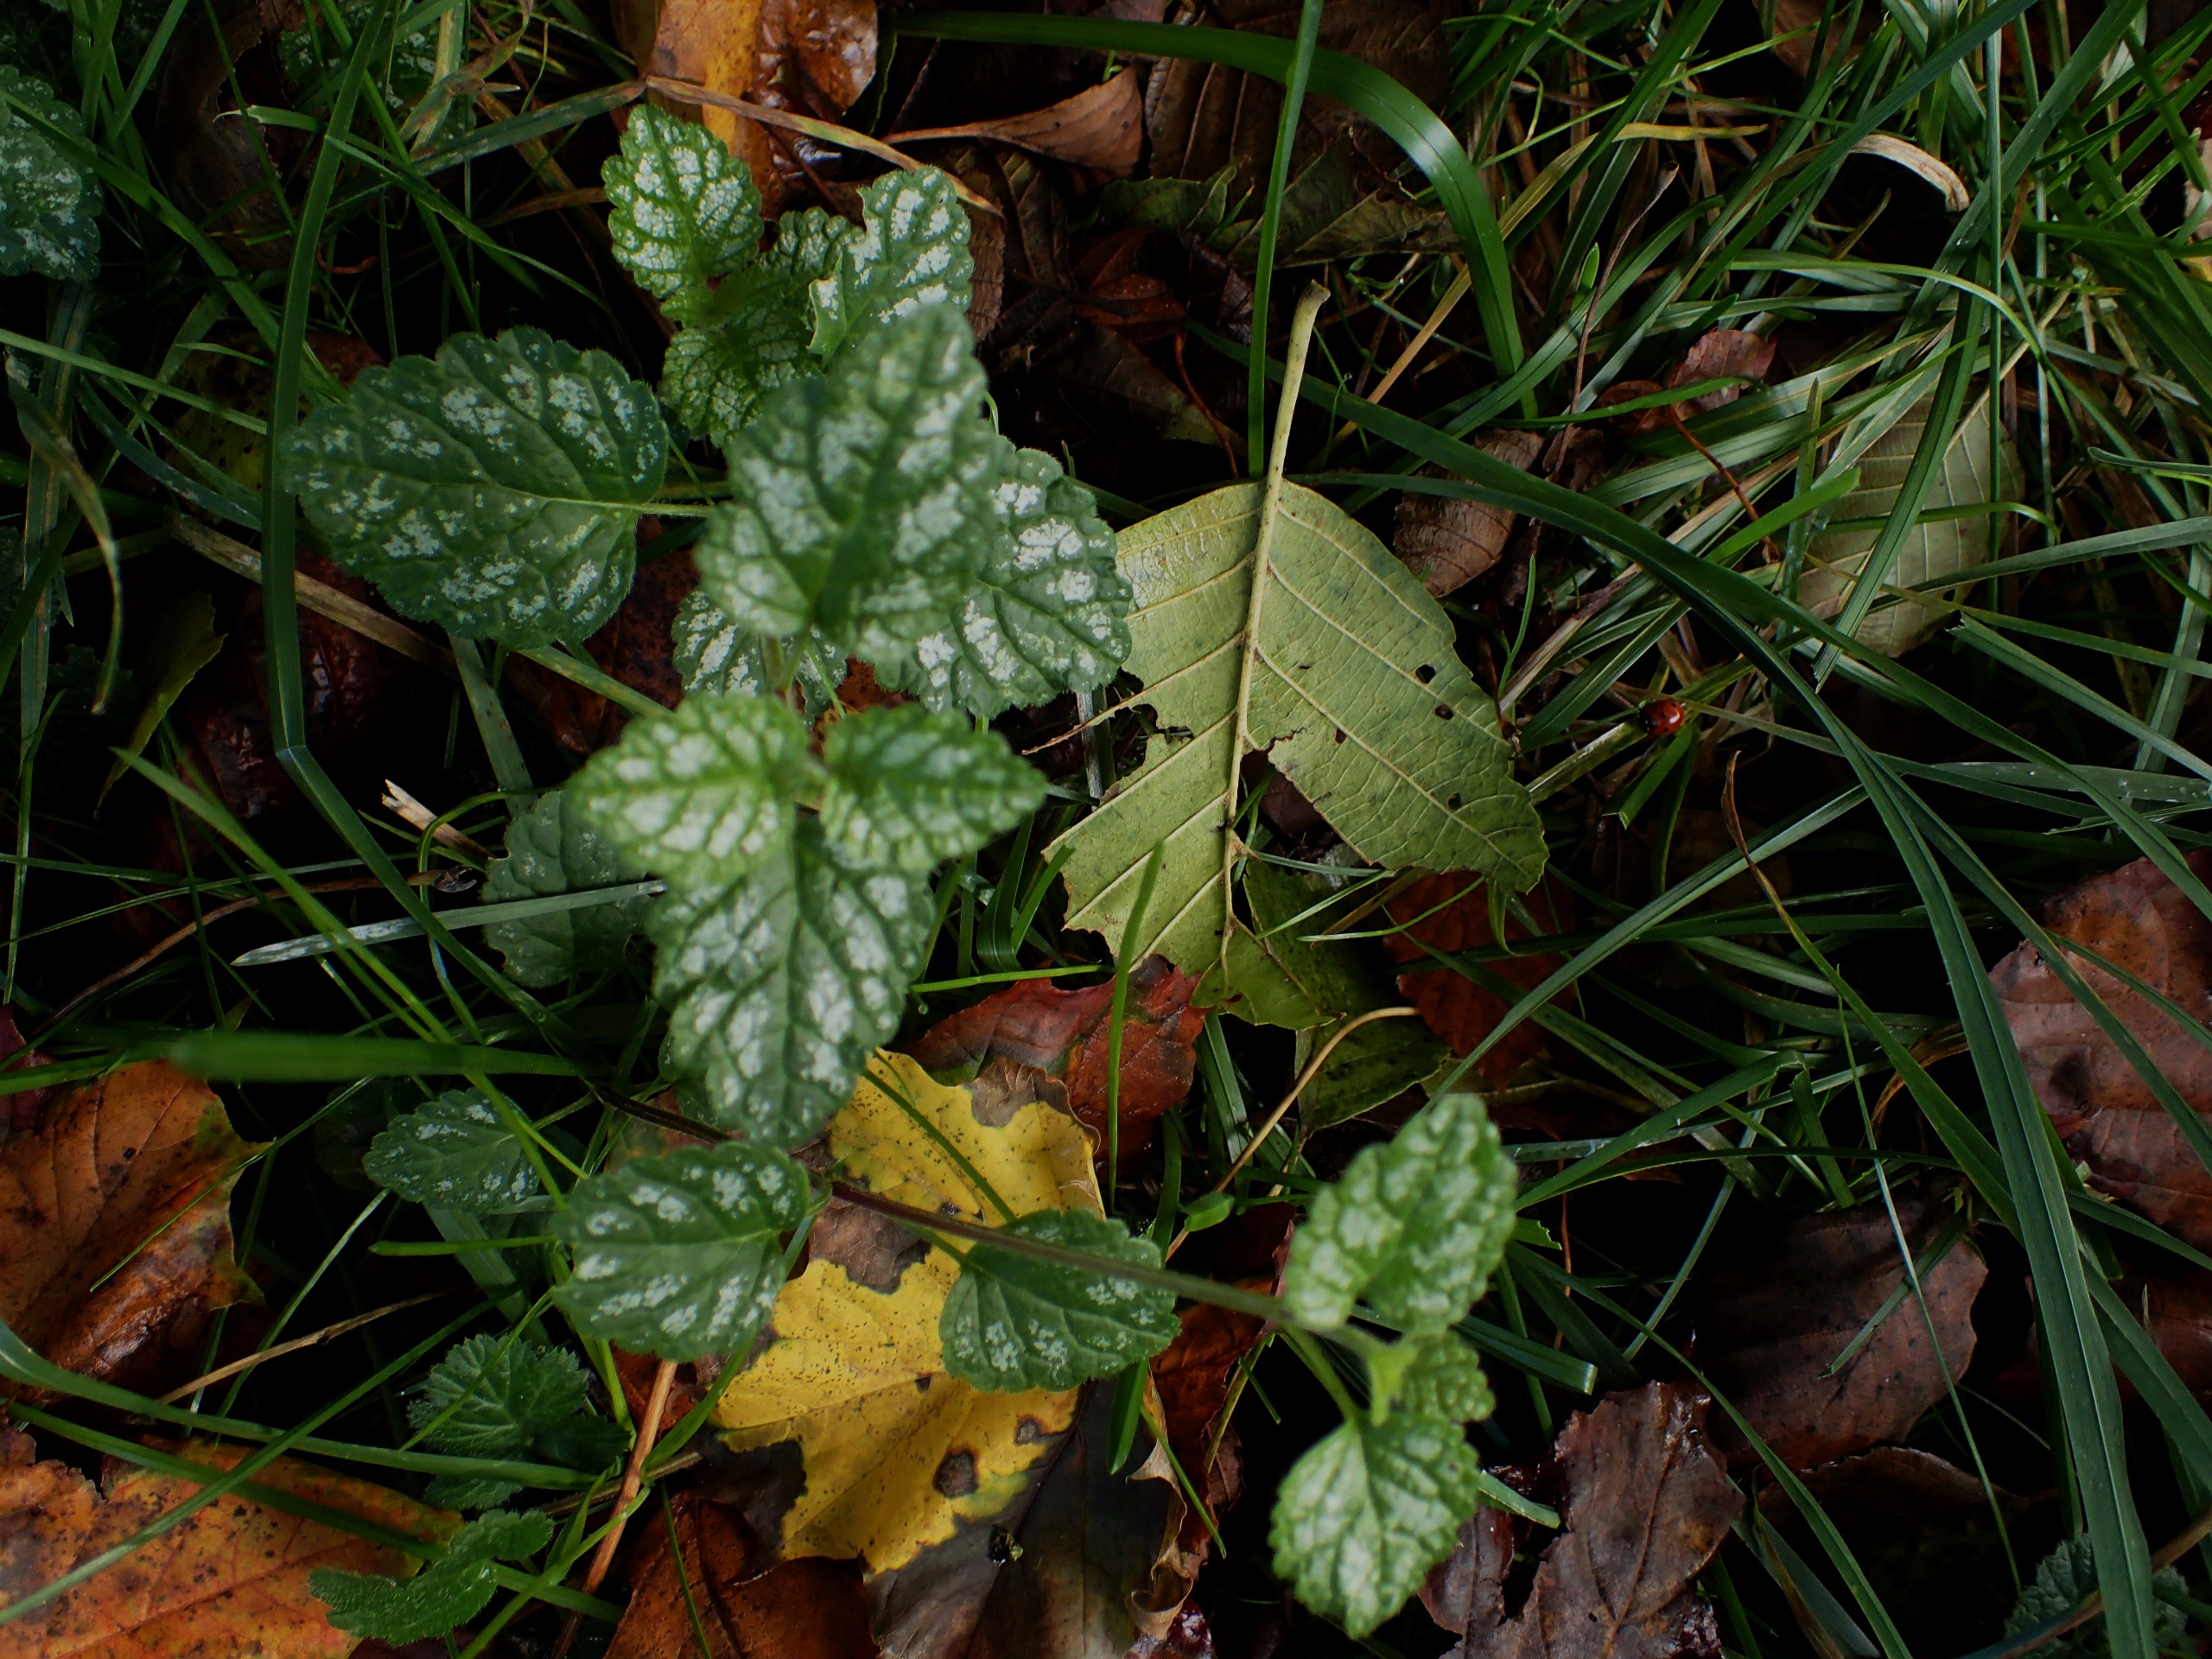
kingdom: Plantae
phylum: Tracheophyta
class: Magnoliopsida
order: Lamiales
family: Lamiaceae
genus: Lamium
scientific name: Lamium galeobdolon
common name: Almindelig guldnælde
